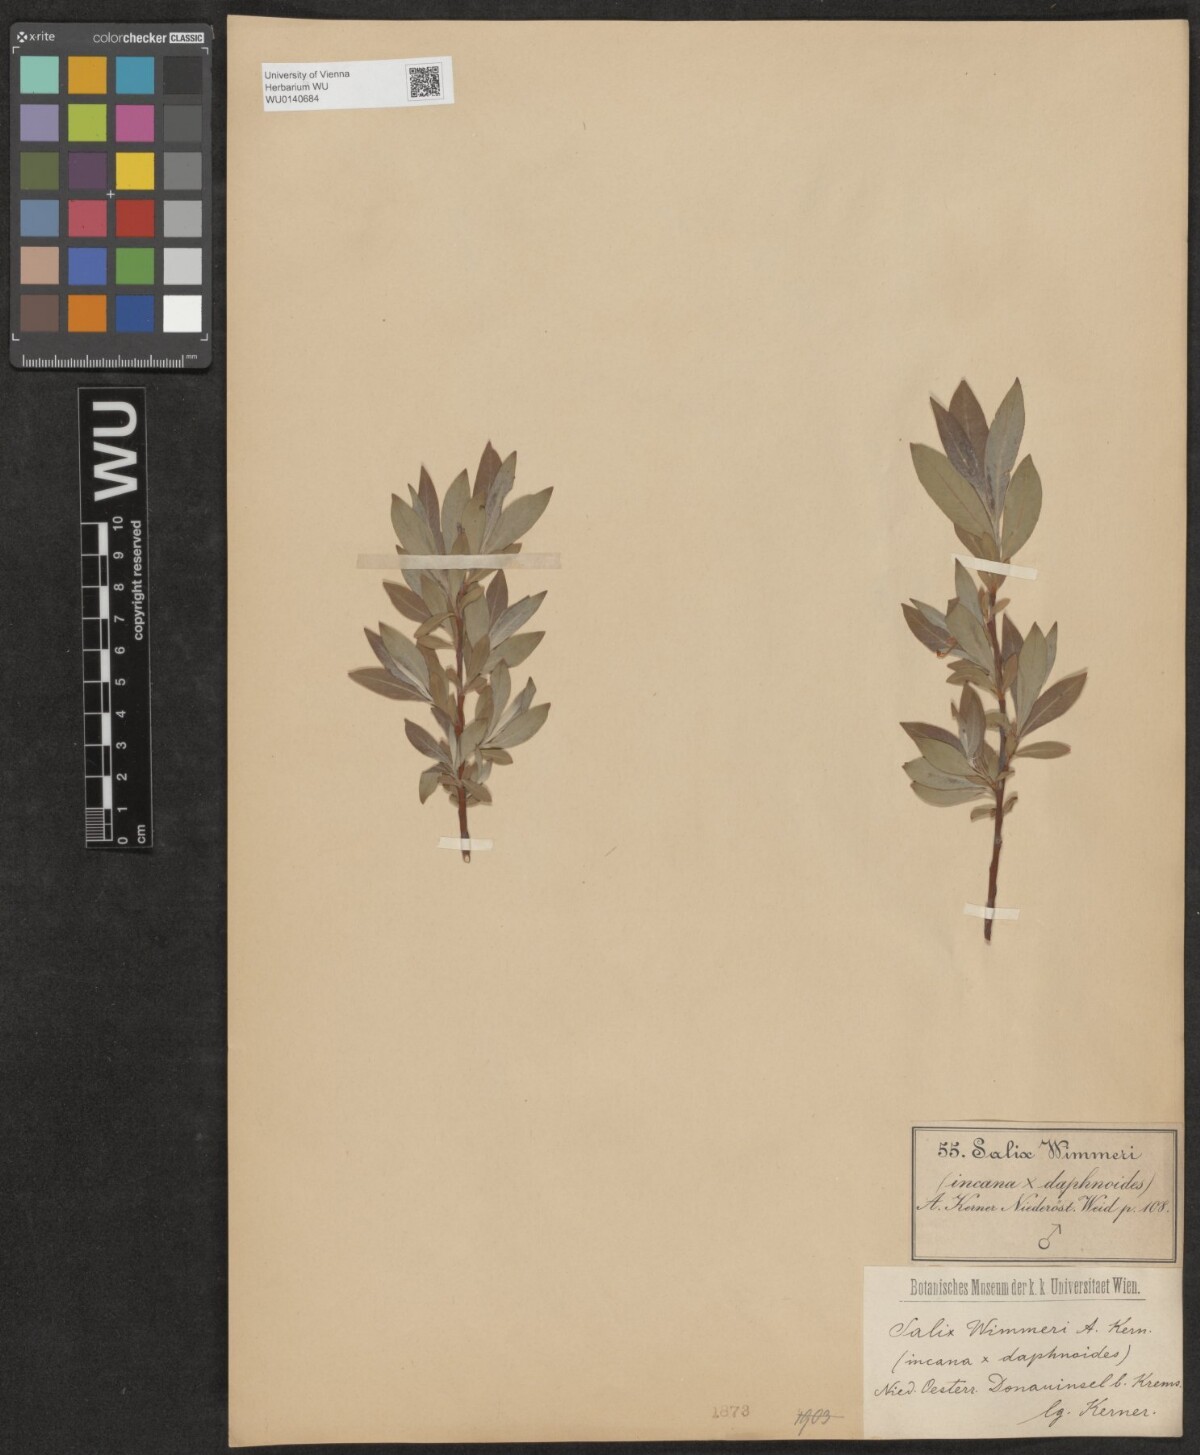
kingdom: Plantae
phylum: Tracheophyta
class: Magnoliopsida
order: Malpighiales
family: Salicaceae
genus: Salix
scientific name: Salix
